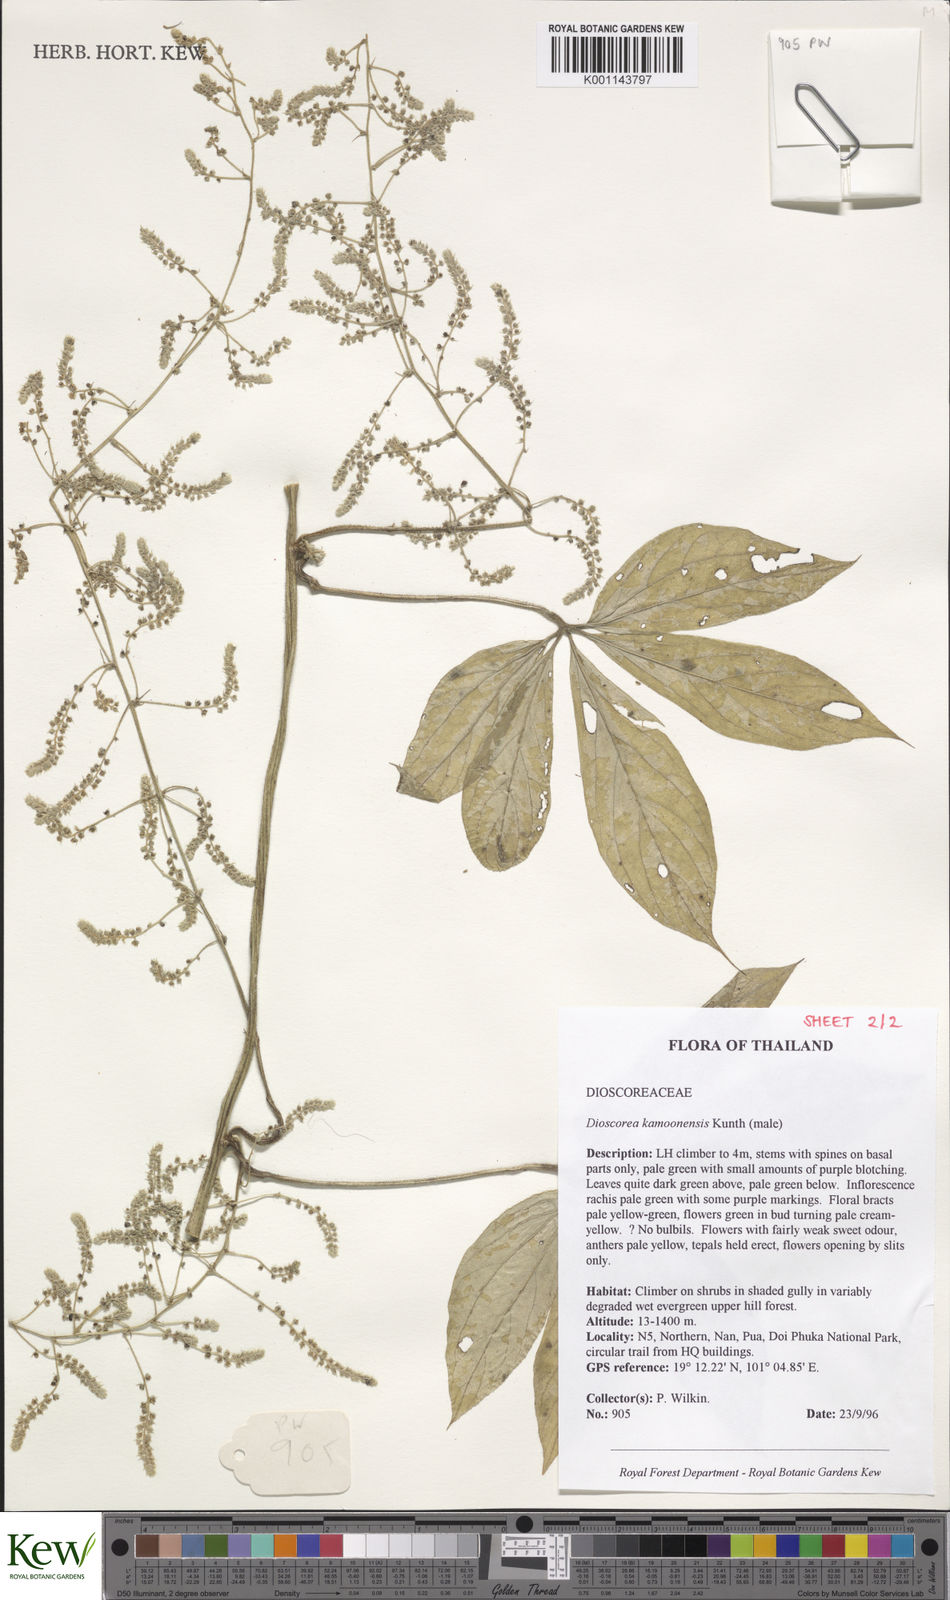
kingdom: Plantae
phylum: Tracheophyta
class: Liliopsida
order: Dioscoreales
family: Dioscoreaceae
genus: Dioscorea
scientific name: Dioscorea kamoonensis
